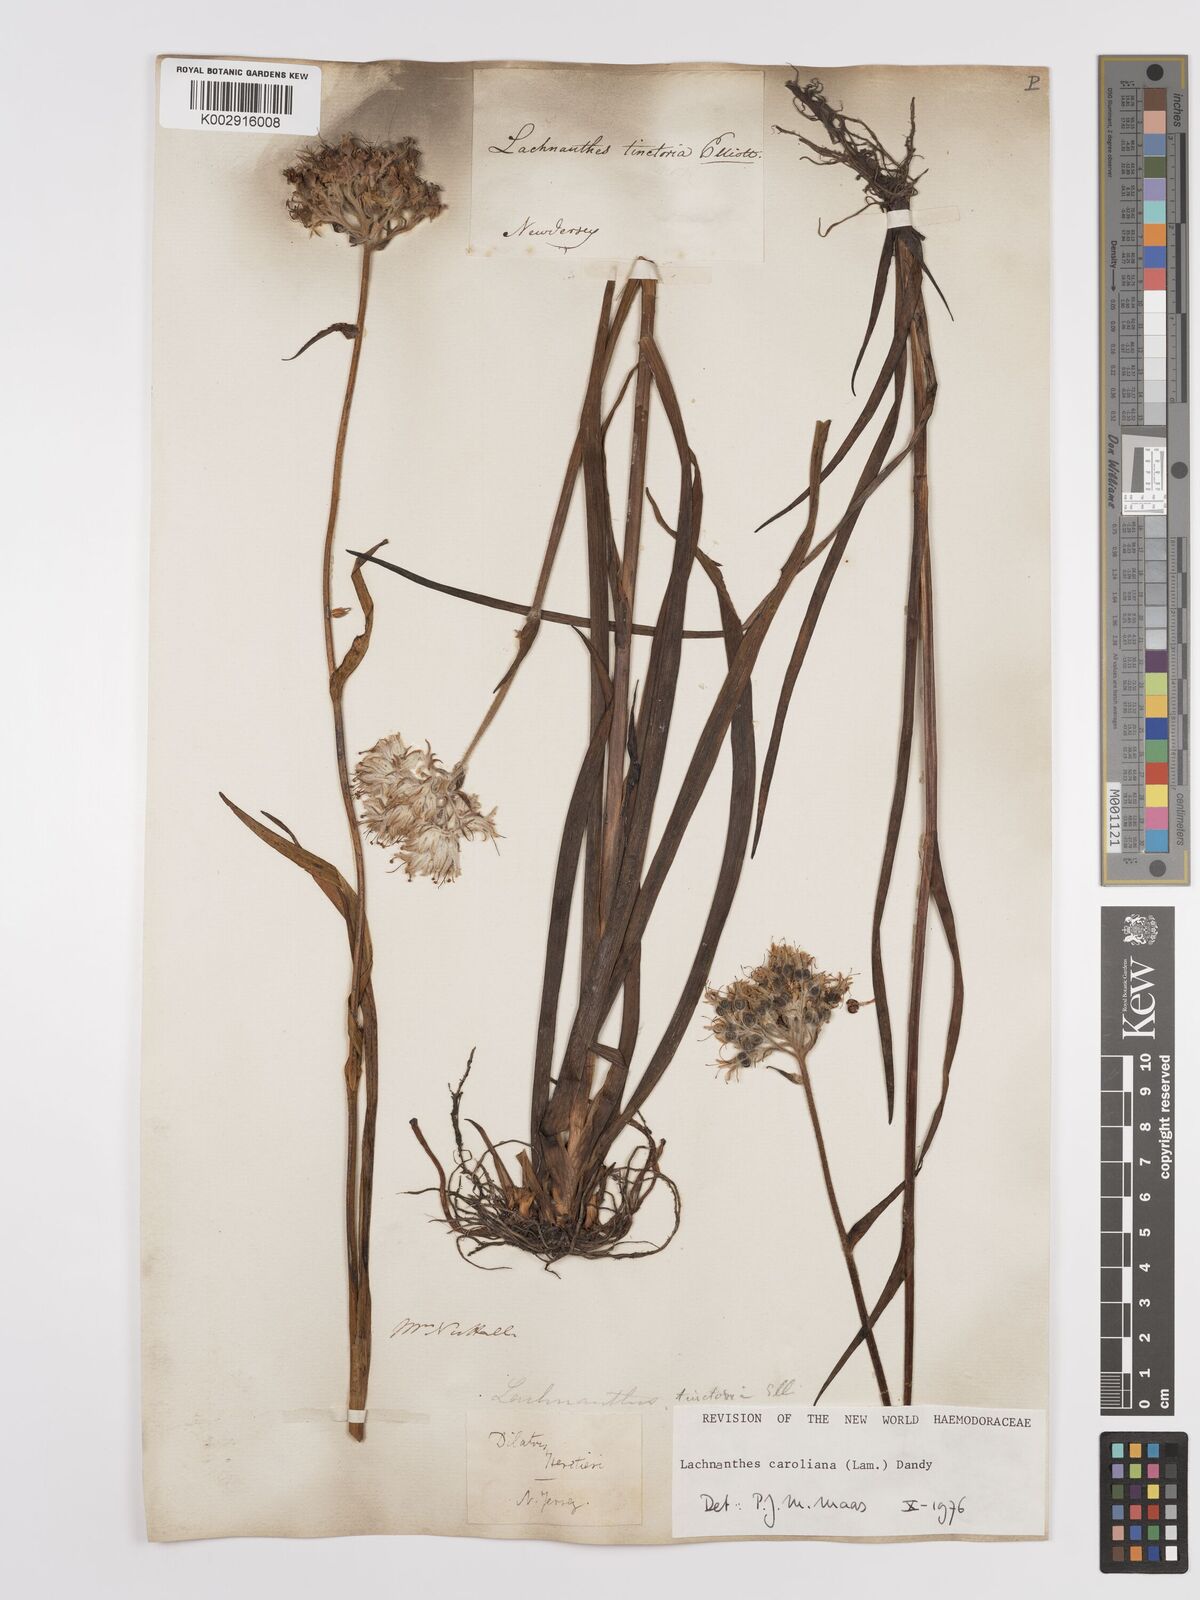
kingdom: Plantae
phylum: Tracheophyta
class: Liliopsida
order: Commelinales
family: Haemodoraceae
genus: Lachnanthes
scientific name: Lachnanthes caroliniana
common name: Carolina redroot
